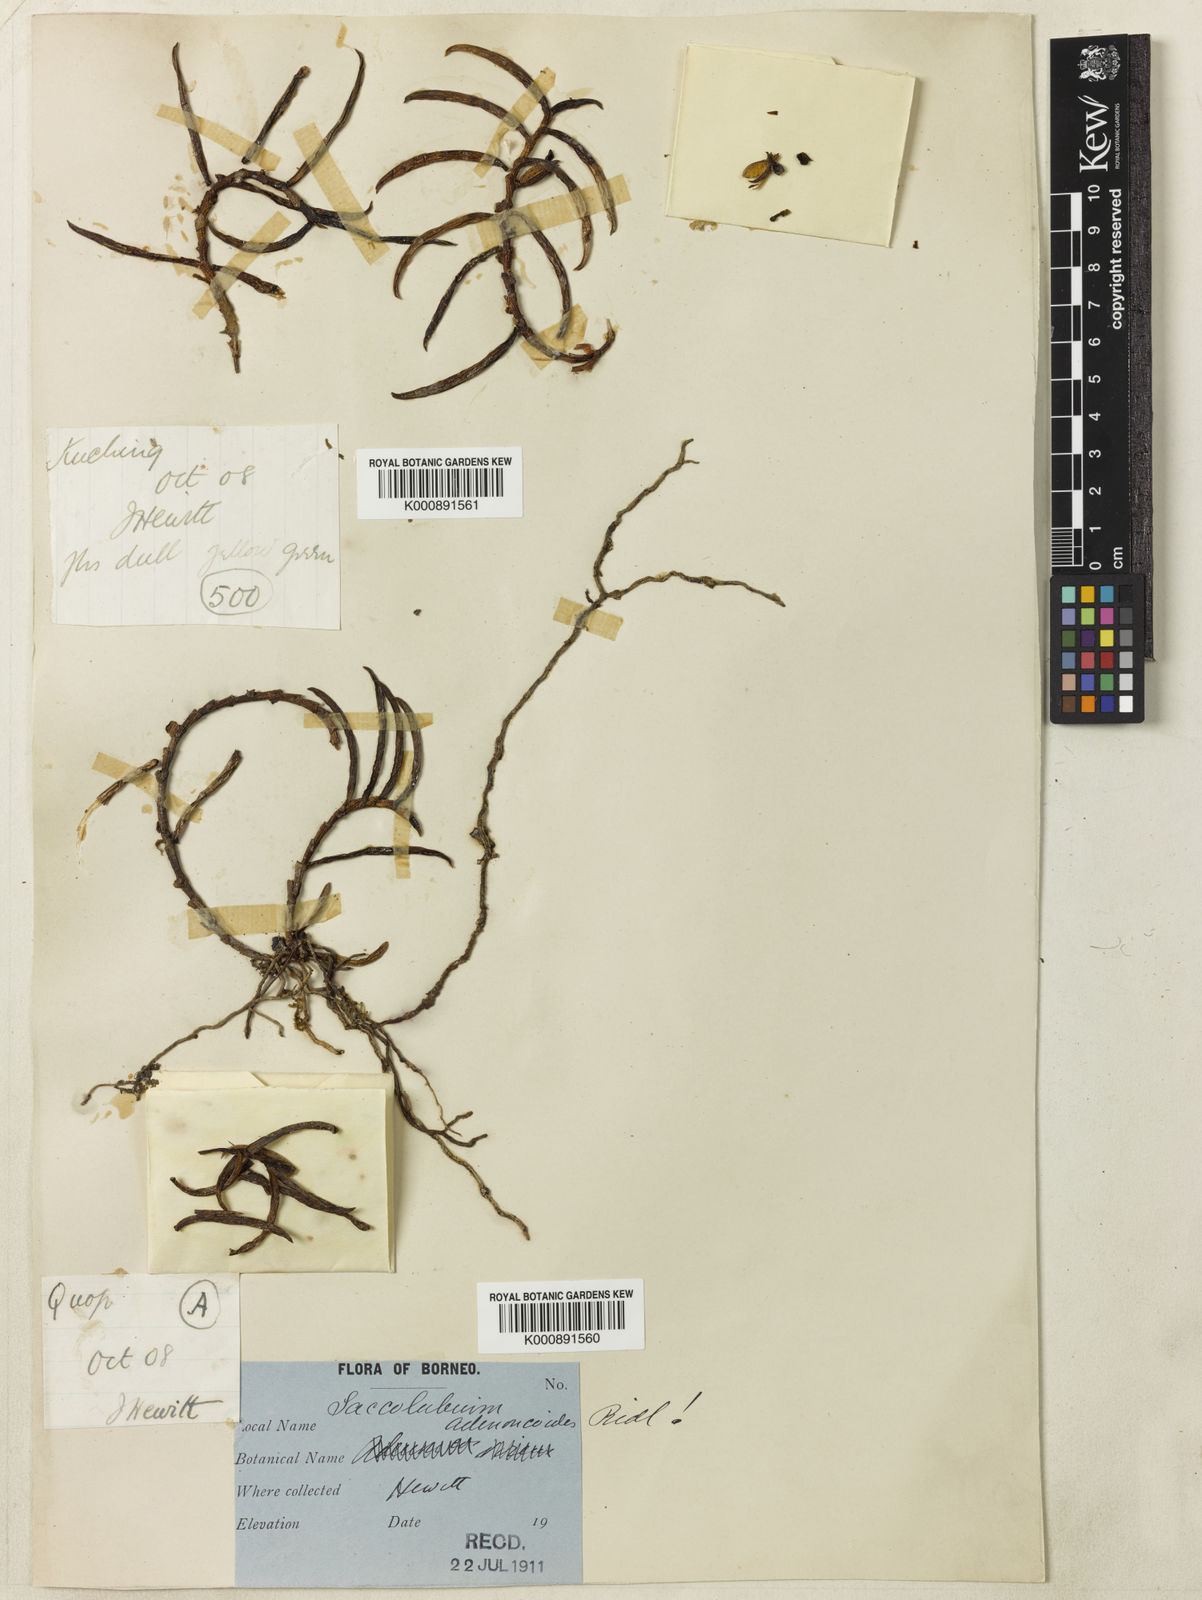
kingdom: Plantae
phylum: Tracheophyta
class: Liliopsida
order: Asparagales
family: Orchidaceae
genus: Adenoncos
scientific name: Adenoncos parviflora
